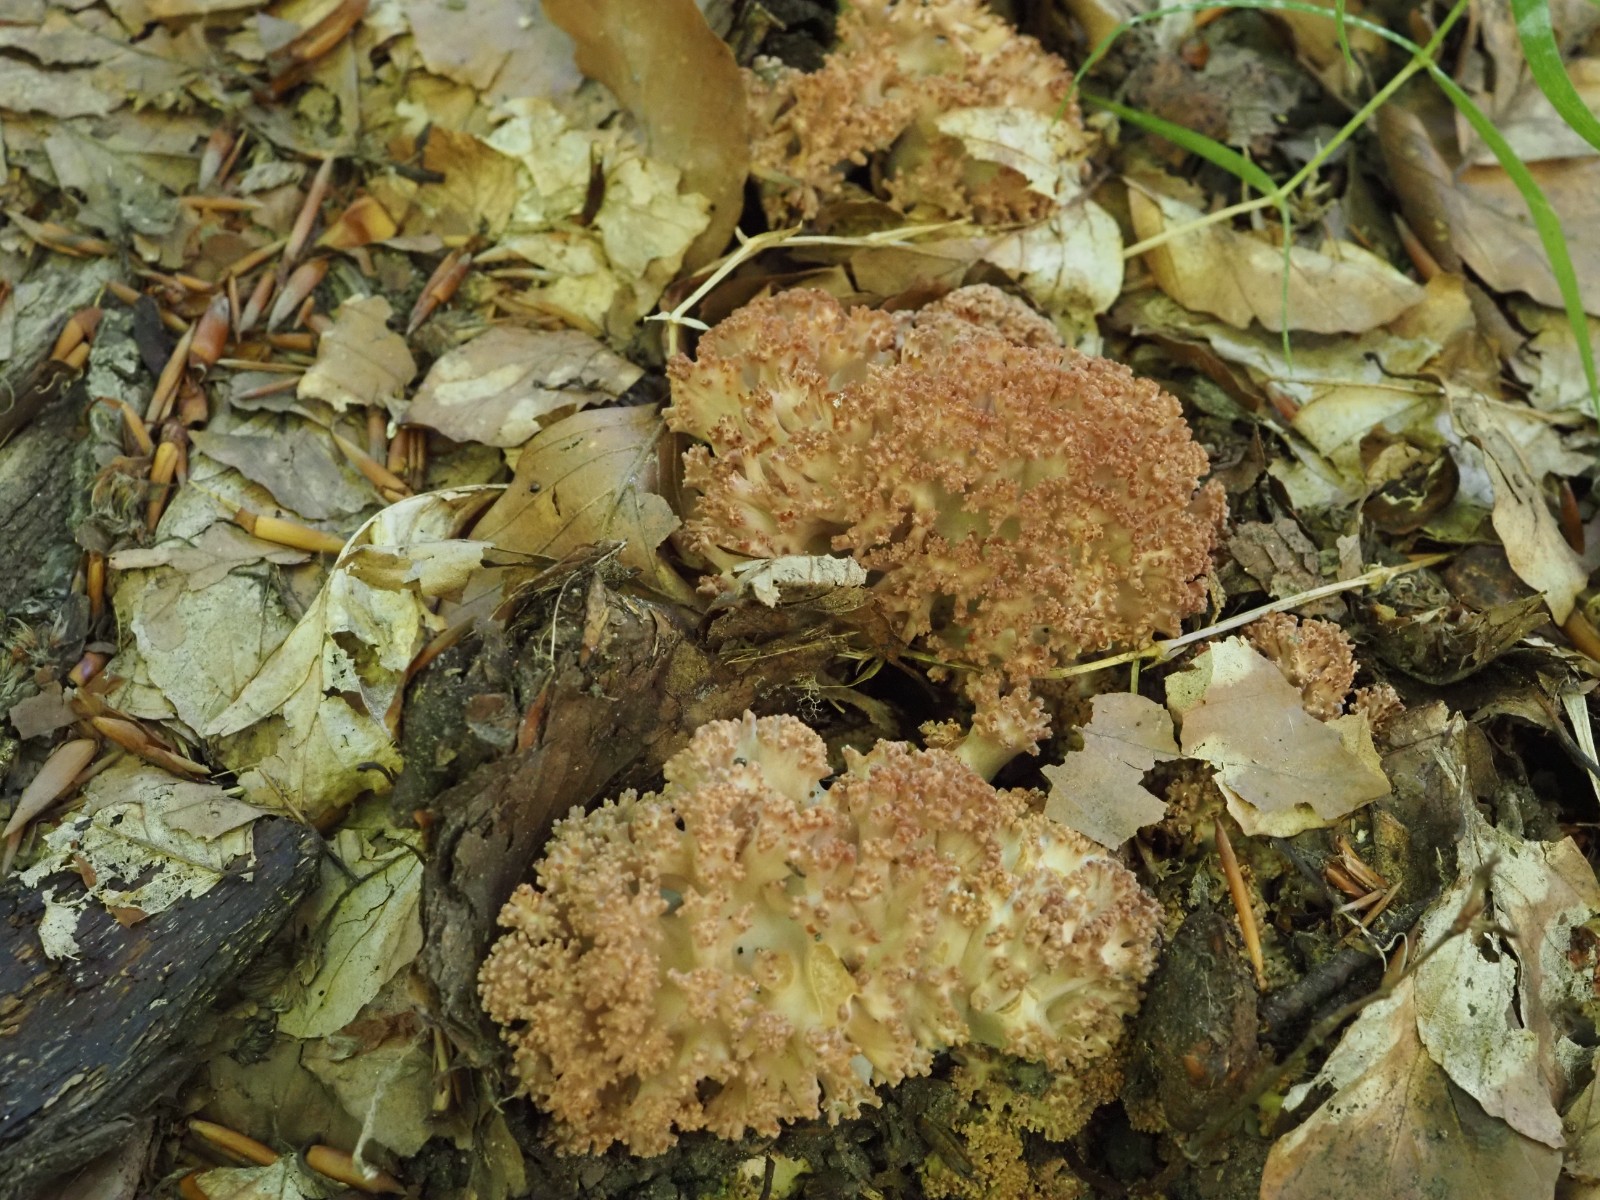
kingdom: Fungi
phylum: Basidiomycota
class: Agaricomycetes
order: Gomphales
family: Gomphaceae
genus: Ramaria
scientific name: Ramaria botrytis
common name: drue-koralsvamp
